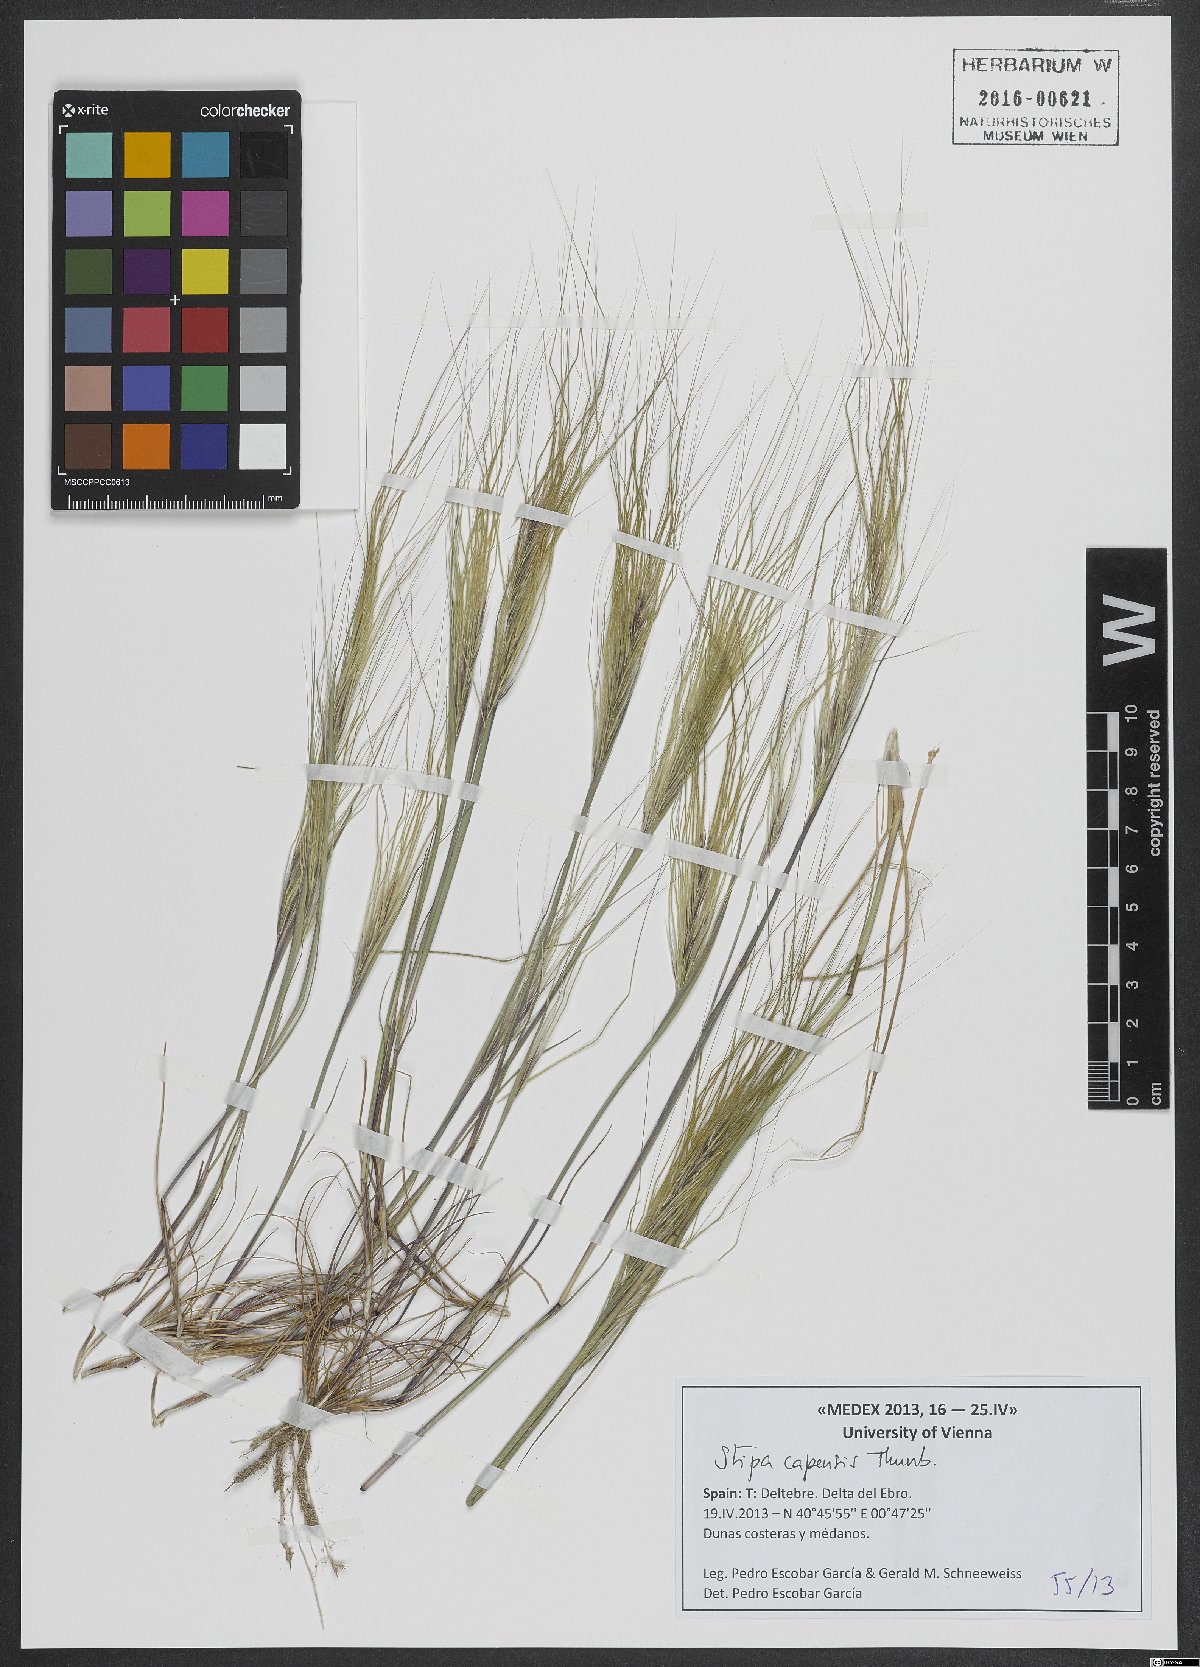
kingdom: Plantae
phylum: Tracheophyta
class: Liliopsida
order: Poales
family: Poaceae
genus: Stipellula
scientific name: Stipellula capensis
